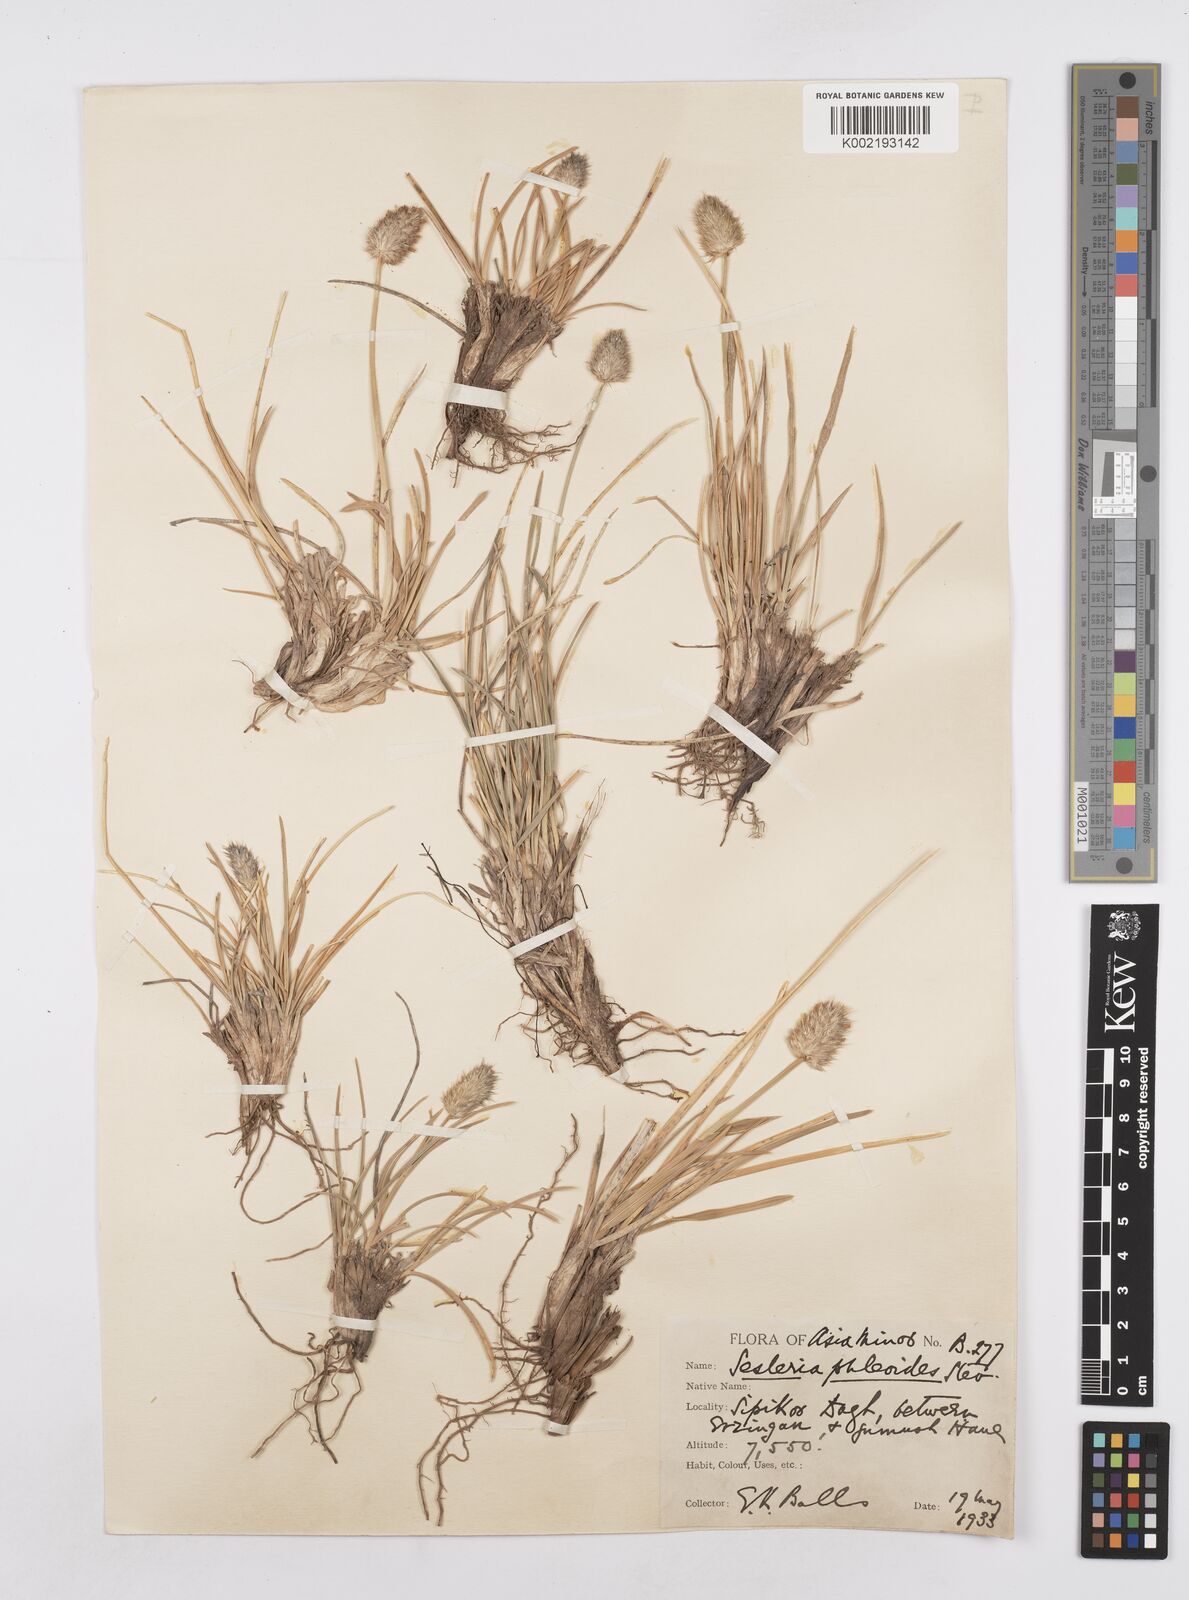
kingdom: Plantae
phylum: Tracheophyta
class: Liliopsida
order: Poales
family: Poaceae
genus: Sesleria
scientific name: Sesleria phleoides
